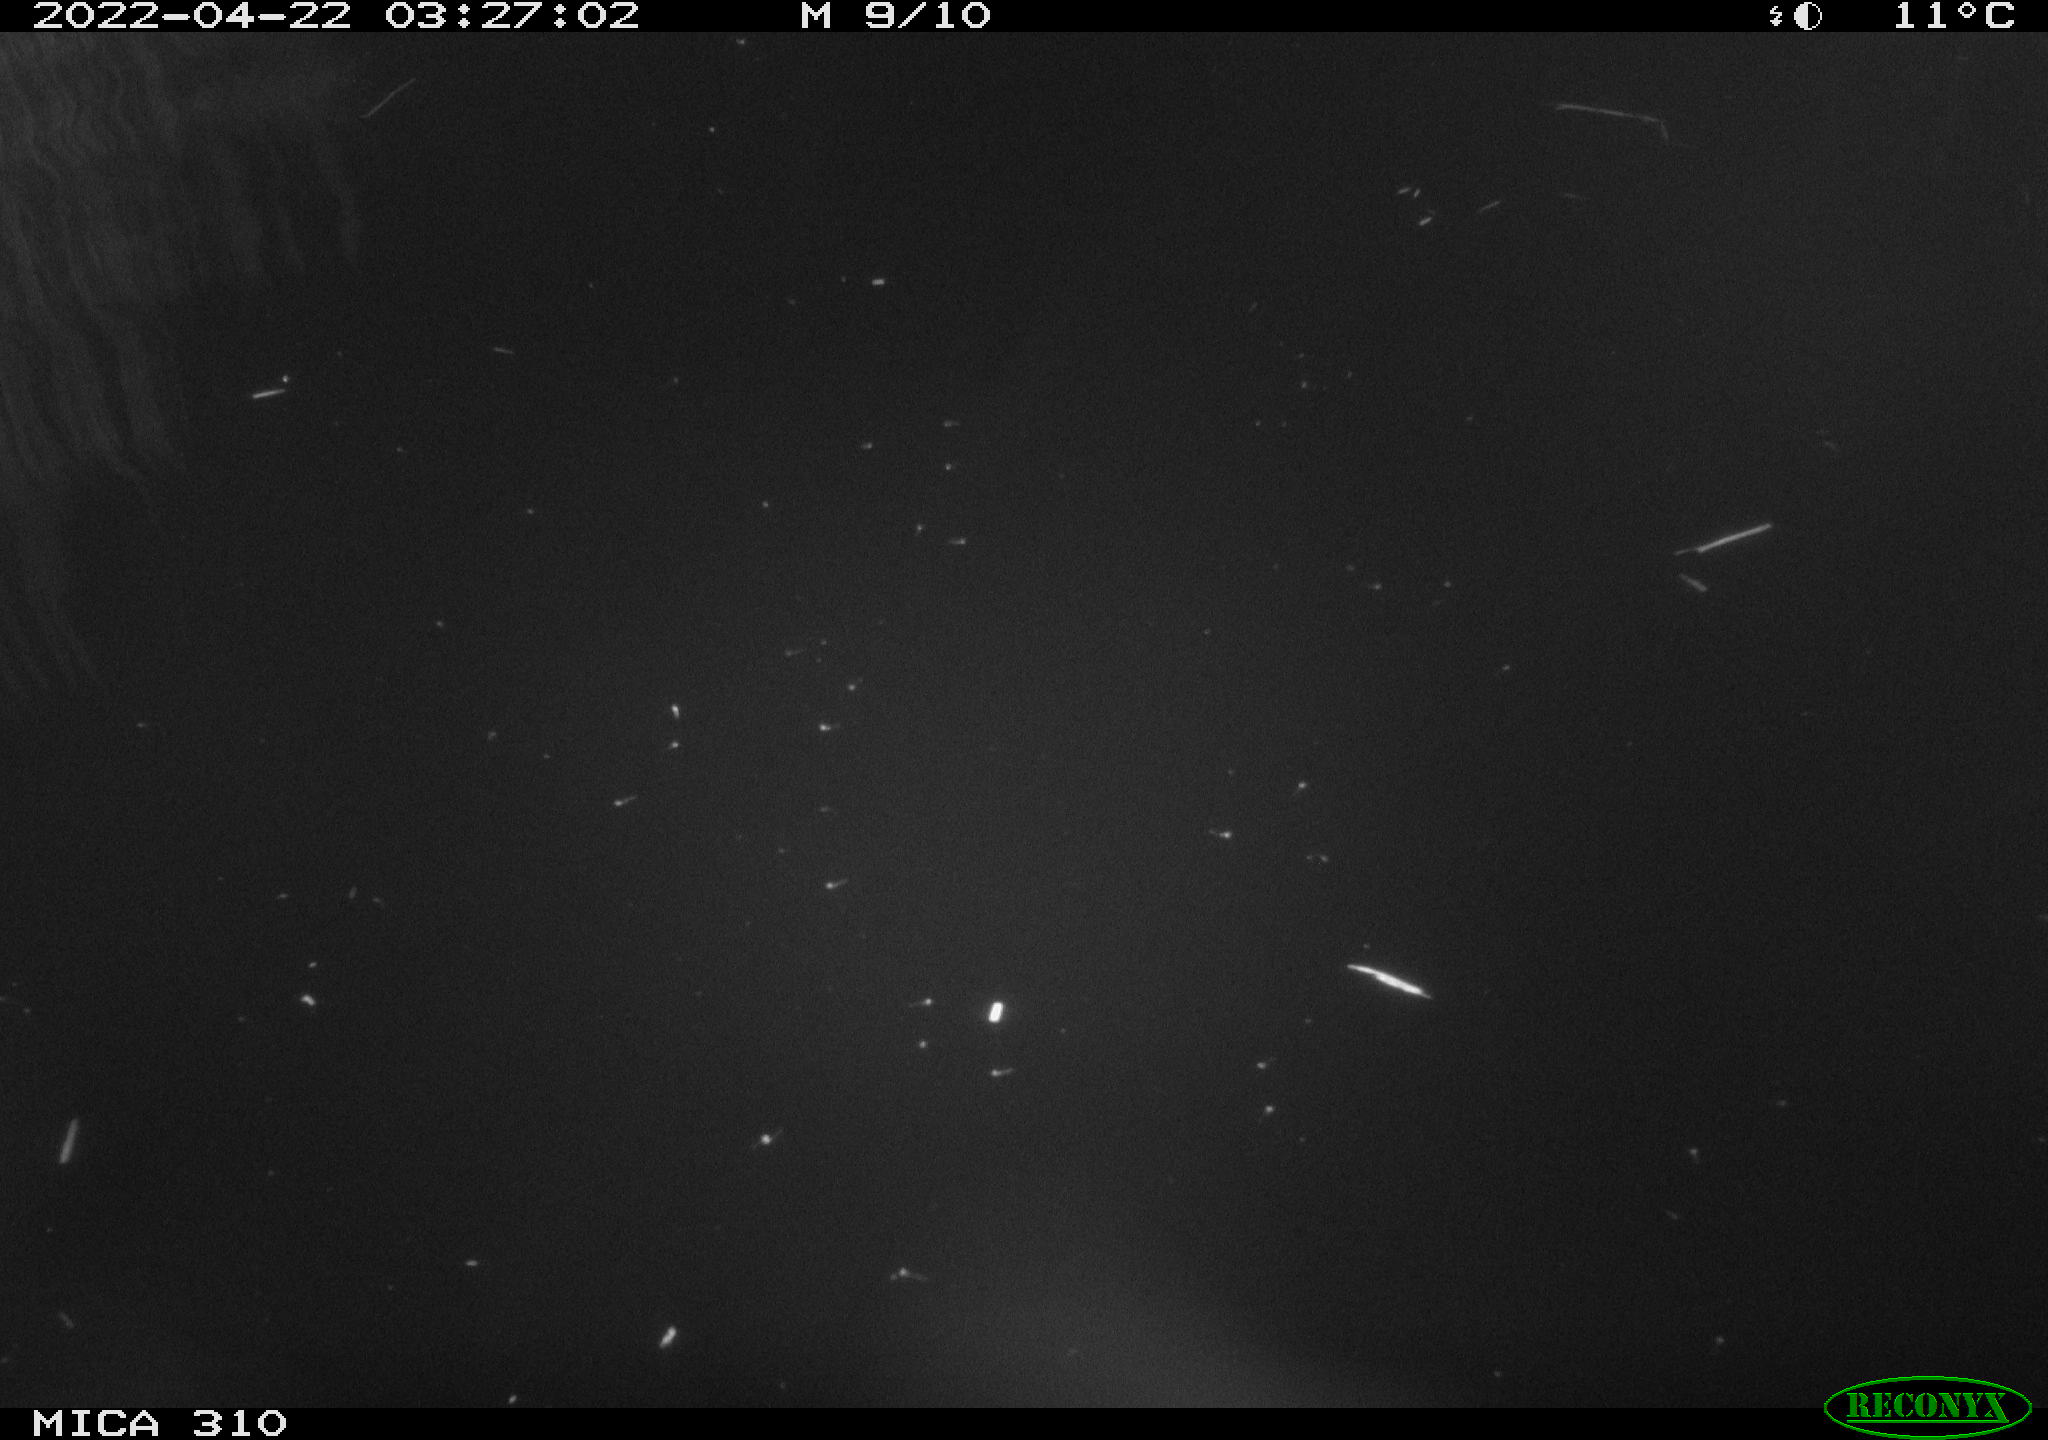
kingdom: Animalia
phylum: Chordata
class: Aves
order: Anseriformes
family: Anatidae
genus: Anas
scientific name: Anas platyrhynchos
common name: Mallard
